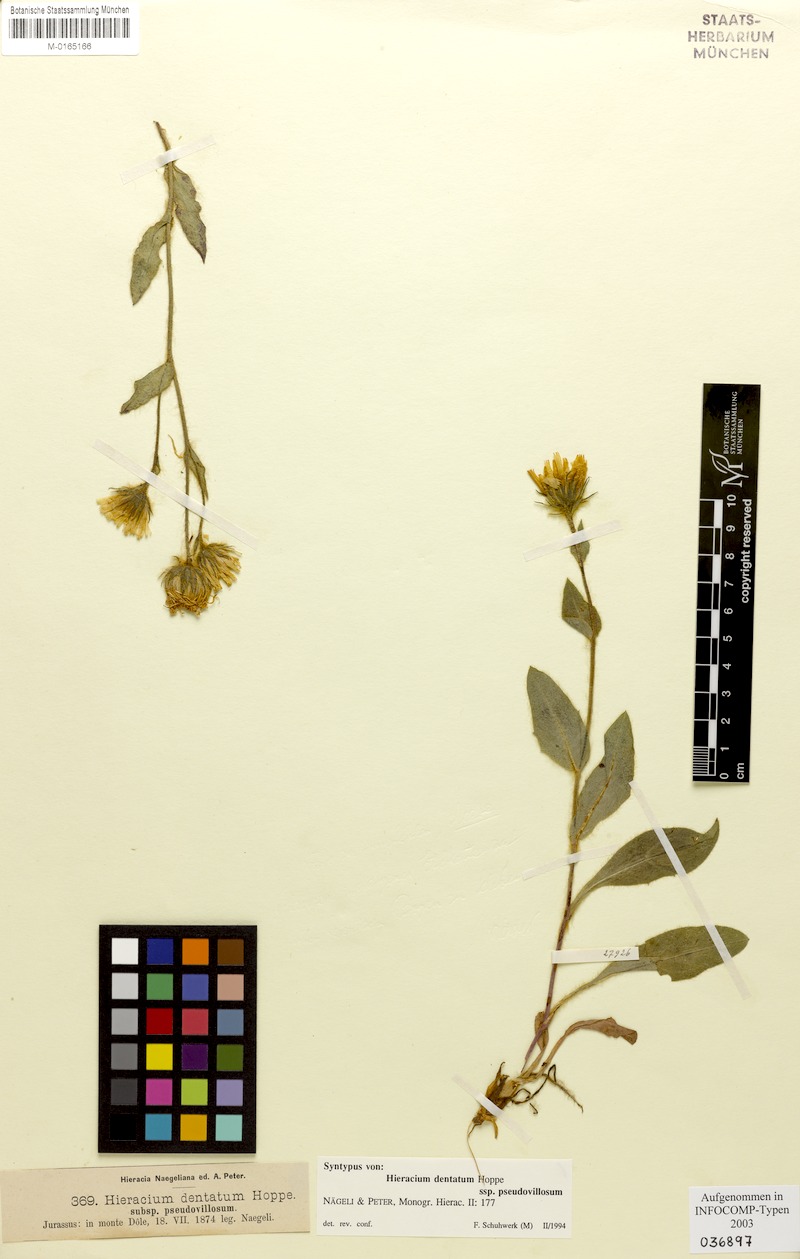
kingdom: Plantae
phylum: Tracheophyta
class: Magnoliopsida
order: Asterales
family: Asteraceae
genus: Hieracium
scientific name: Hieracium dentatum
